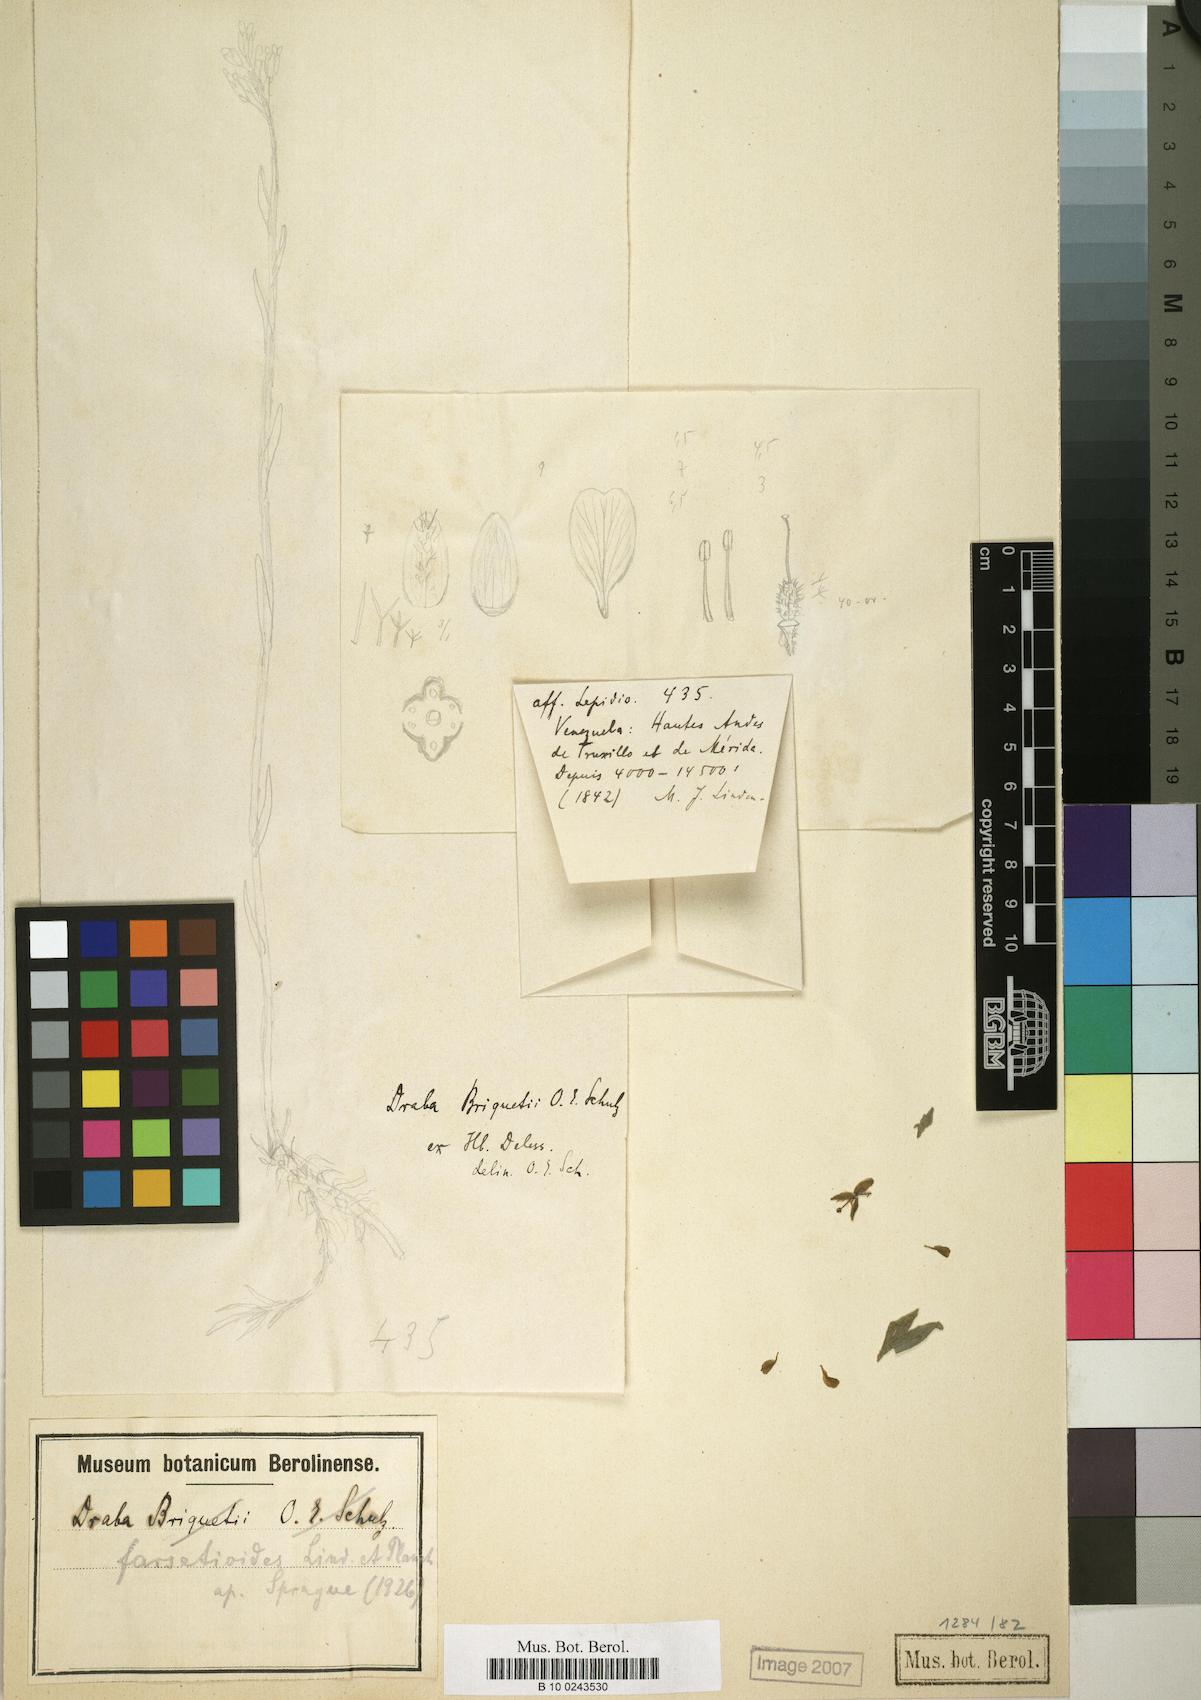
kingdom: Plantae
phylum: Tracheophyta
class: Magnoliopsida
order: Brassicales
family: Brassicaceae
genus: Draba
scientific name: Draba farsetioides
